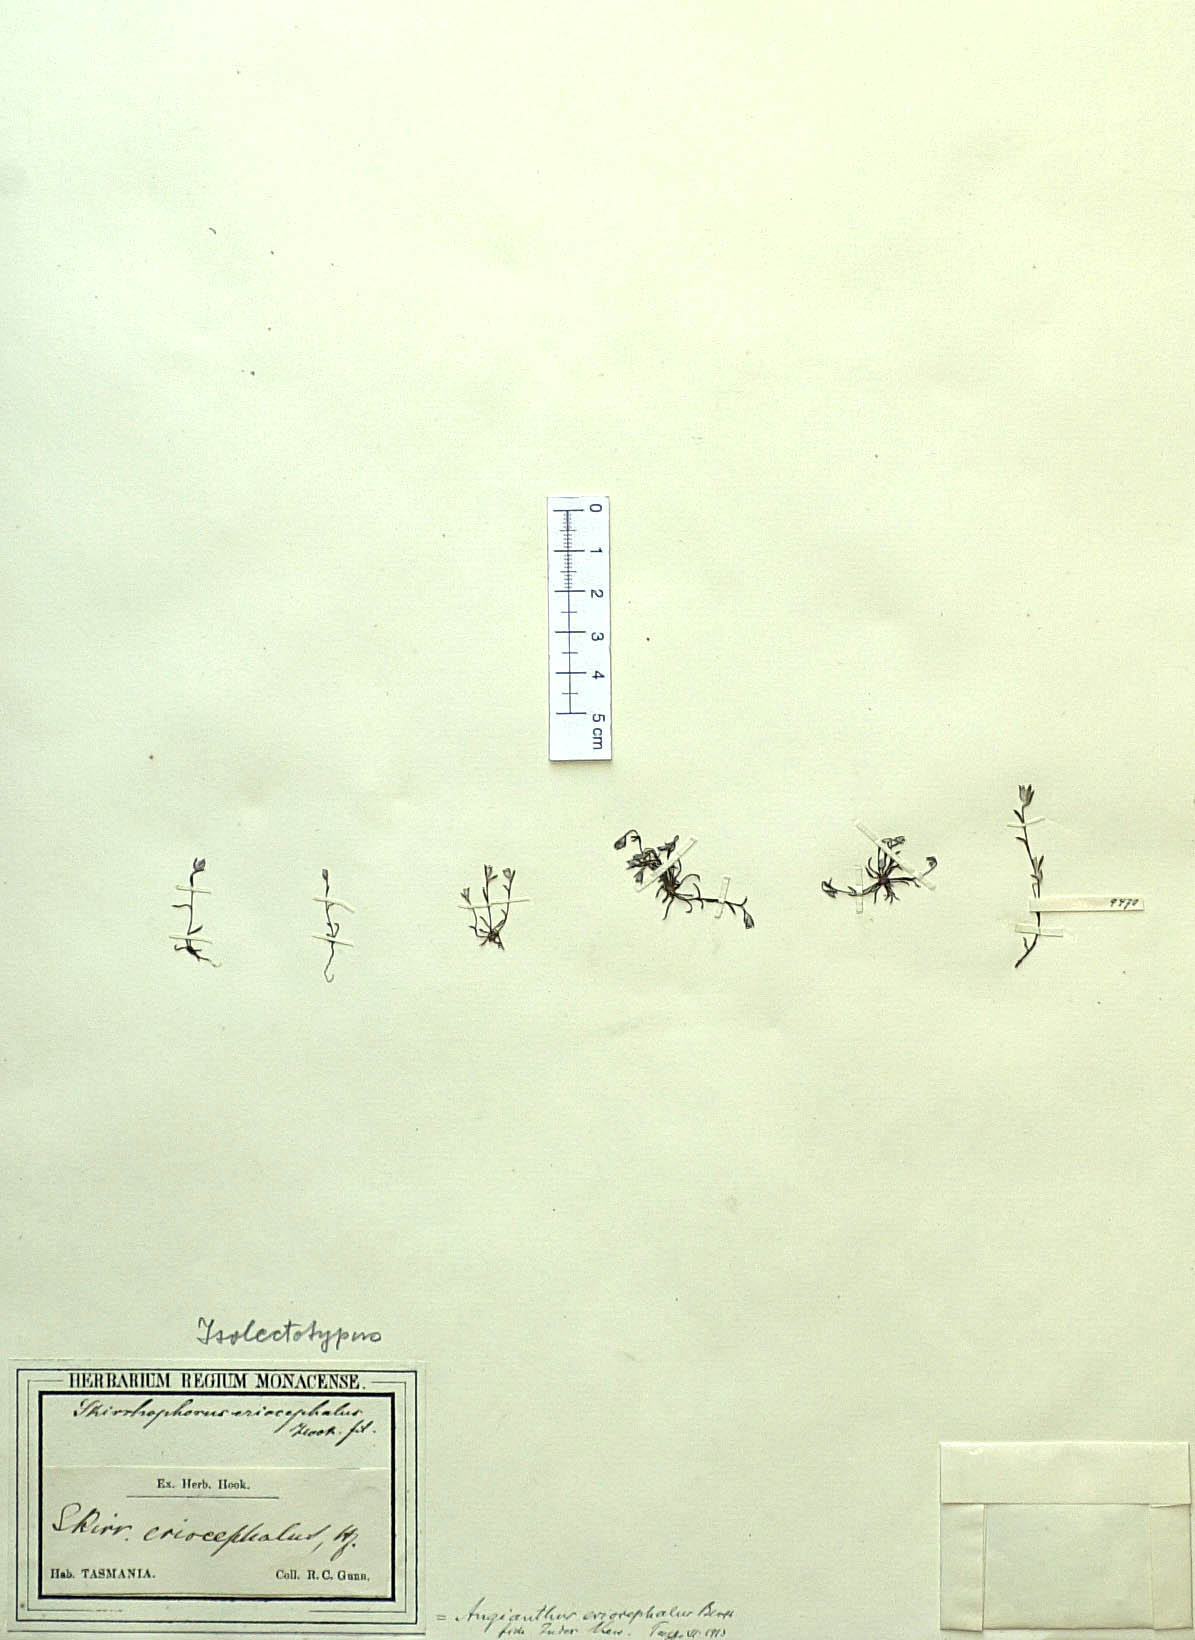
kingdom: Plantae
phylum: Tracheophyta
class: Magnoliopsida
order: Asterales
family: Asteraceae
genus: Angianthus
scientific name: Angianthus preissianus
